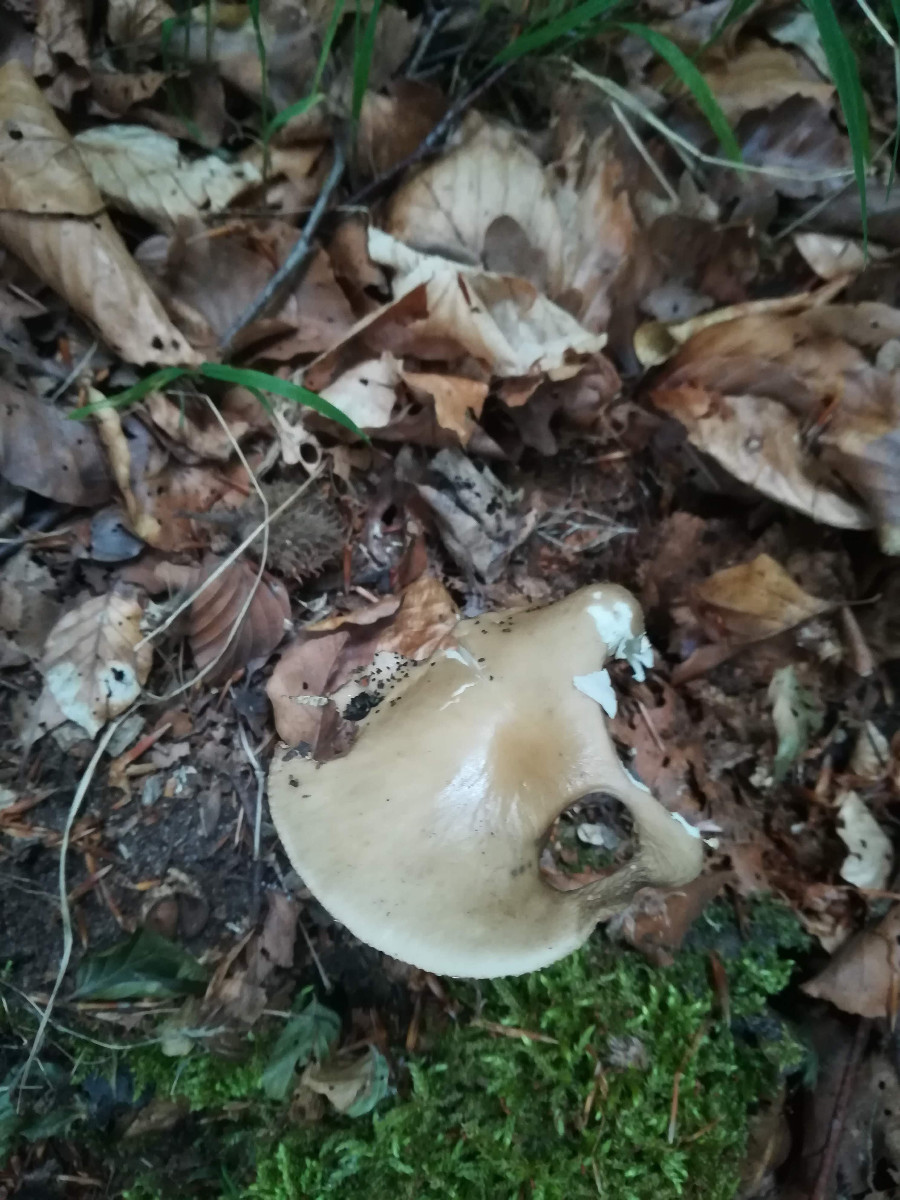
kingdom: Fungi
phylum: Basidiomycota
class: Agaricomycetes
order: Agaricales
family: Physalacriaceae
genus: Hymenopellis
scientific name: Hymenopellis radicata
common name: almindelig pælerodshat
